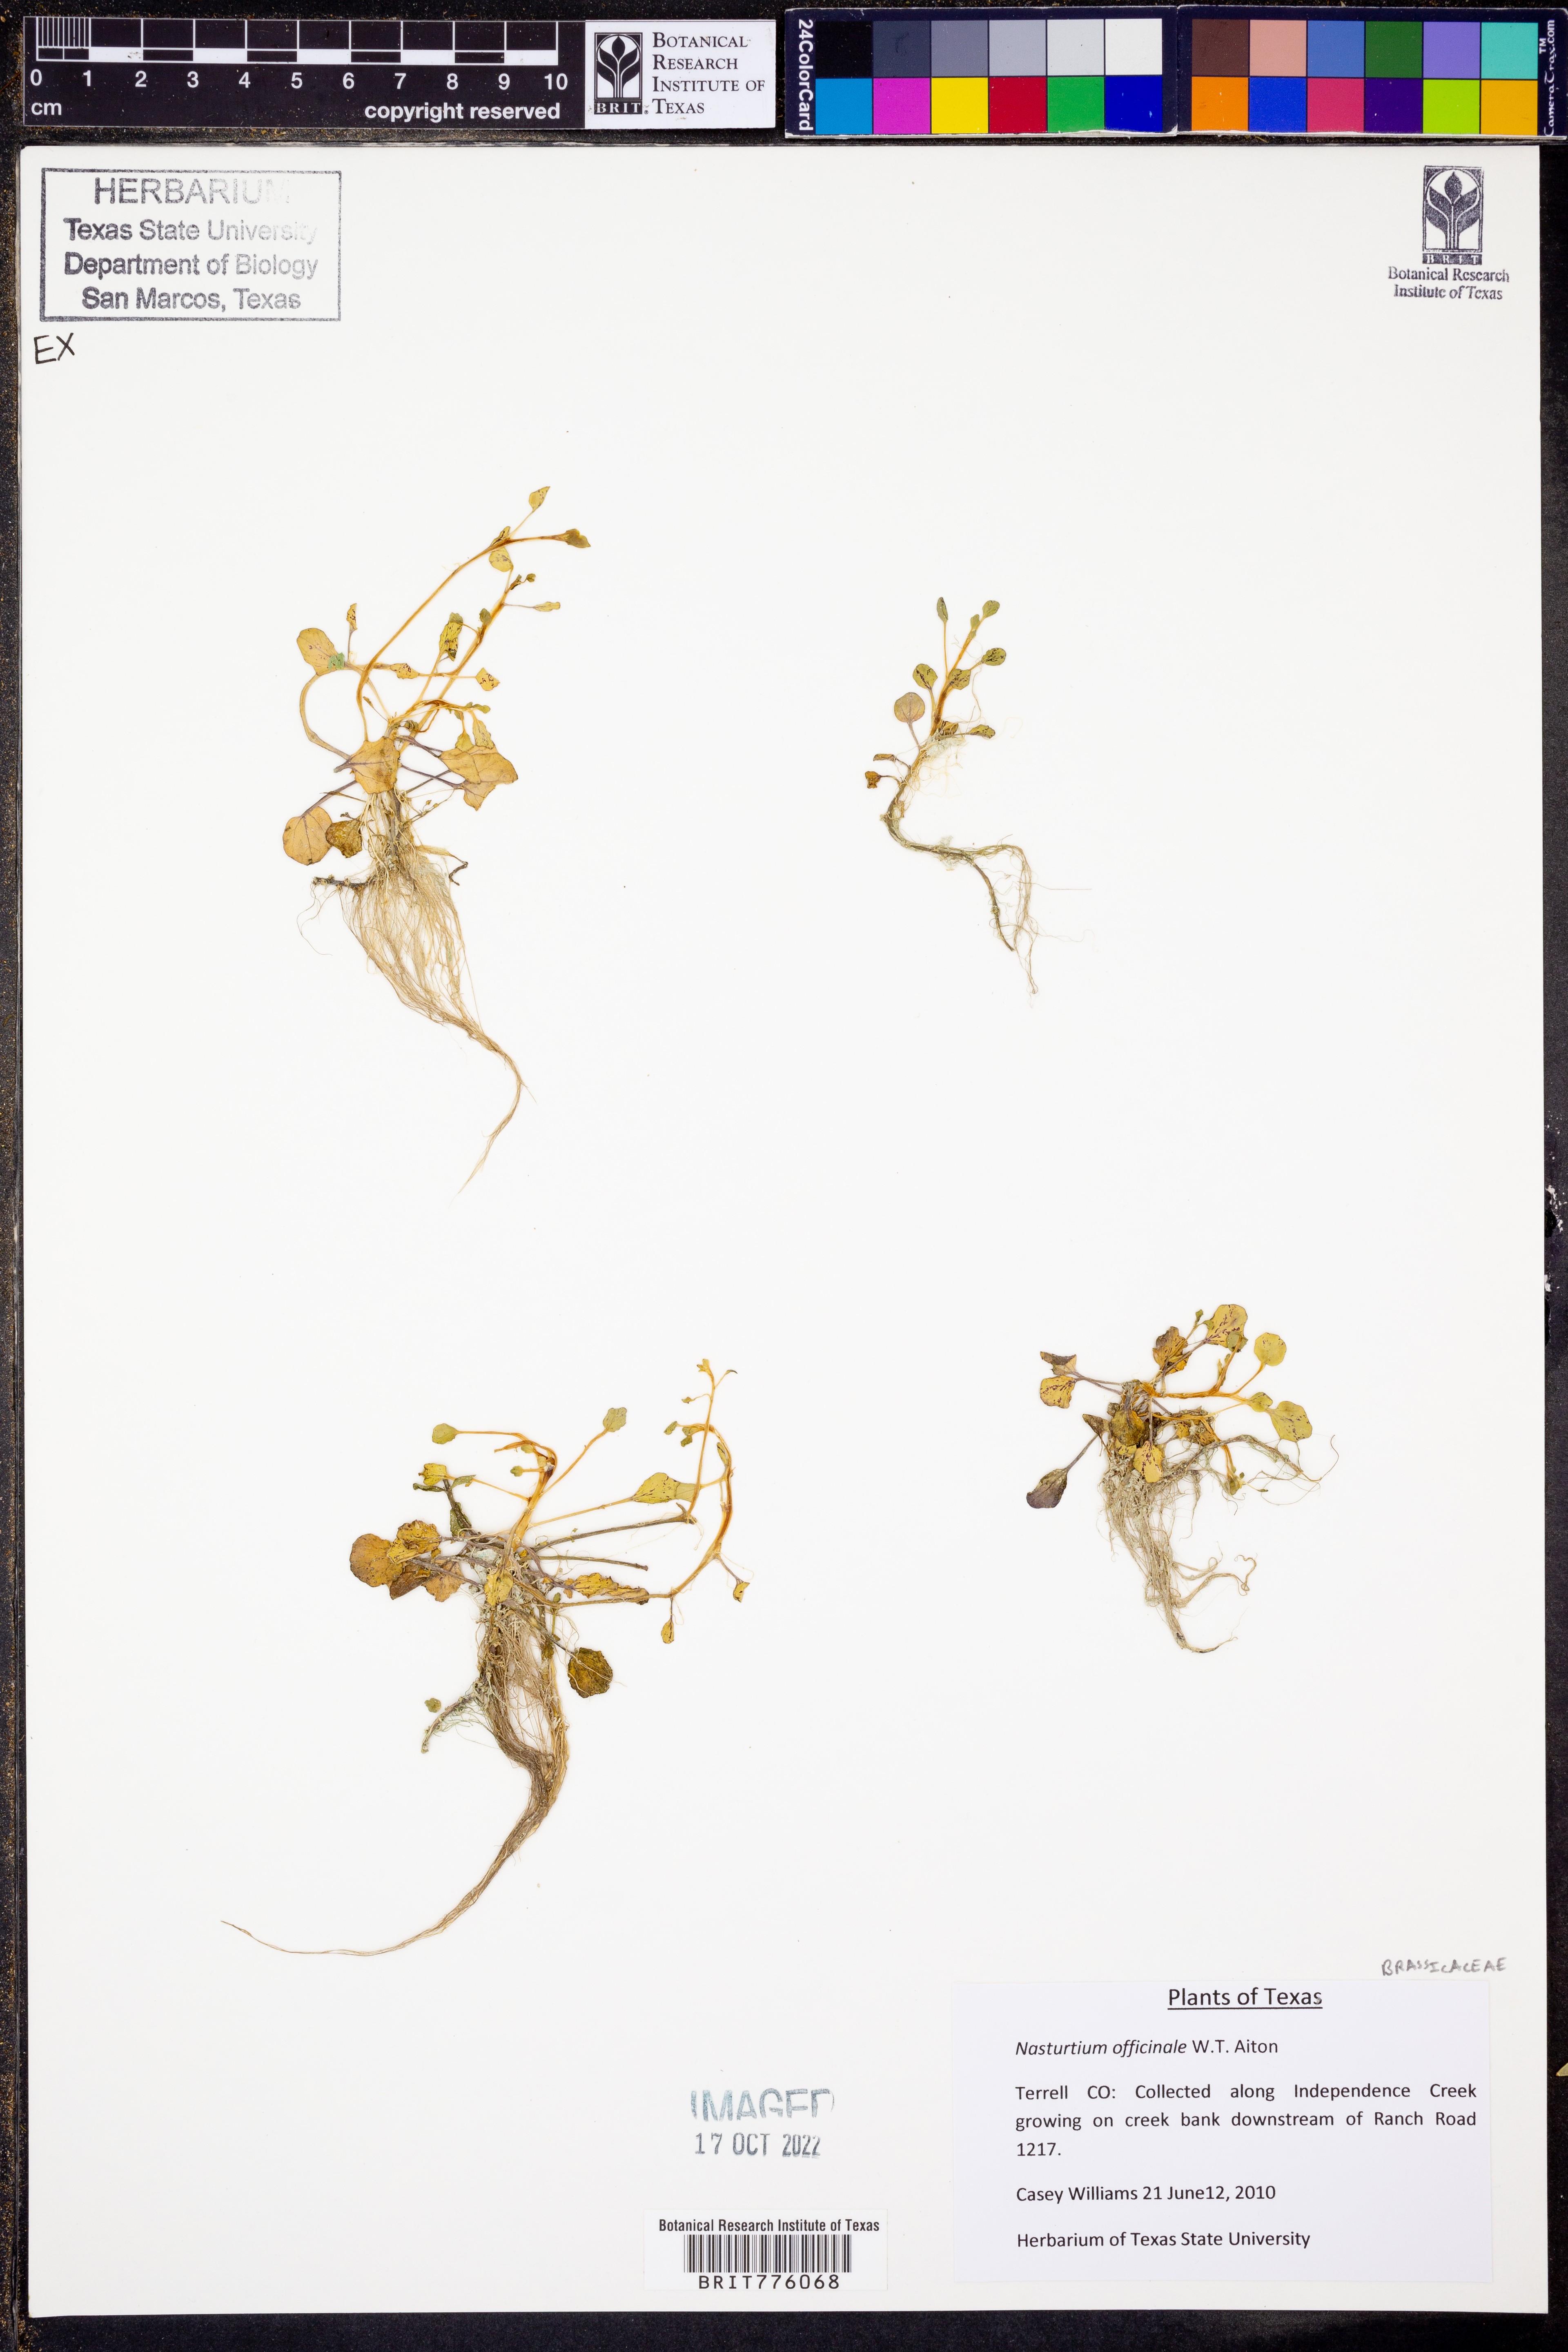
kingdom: Plantae
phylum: Tracheophyta
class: Magnoliopsida
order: Brassicales
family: Brassicaceae
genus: Nasturtium
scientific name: Nasturtium officinale
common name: Watercress
